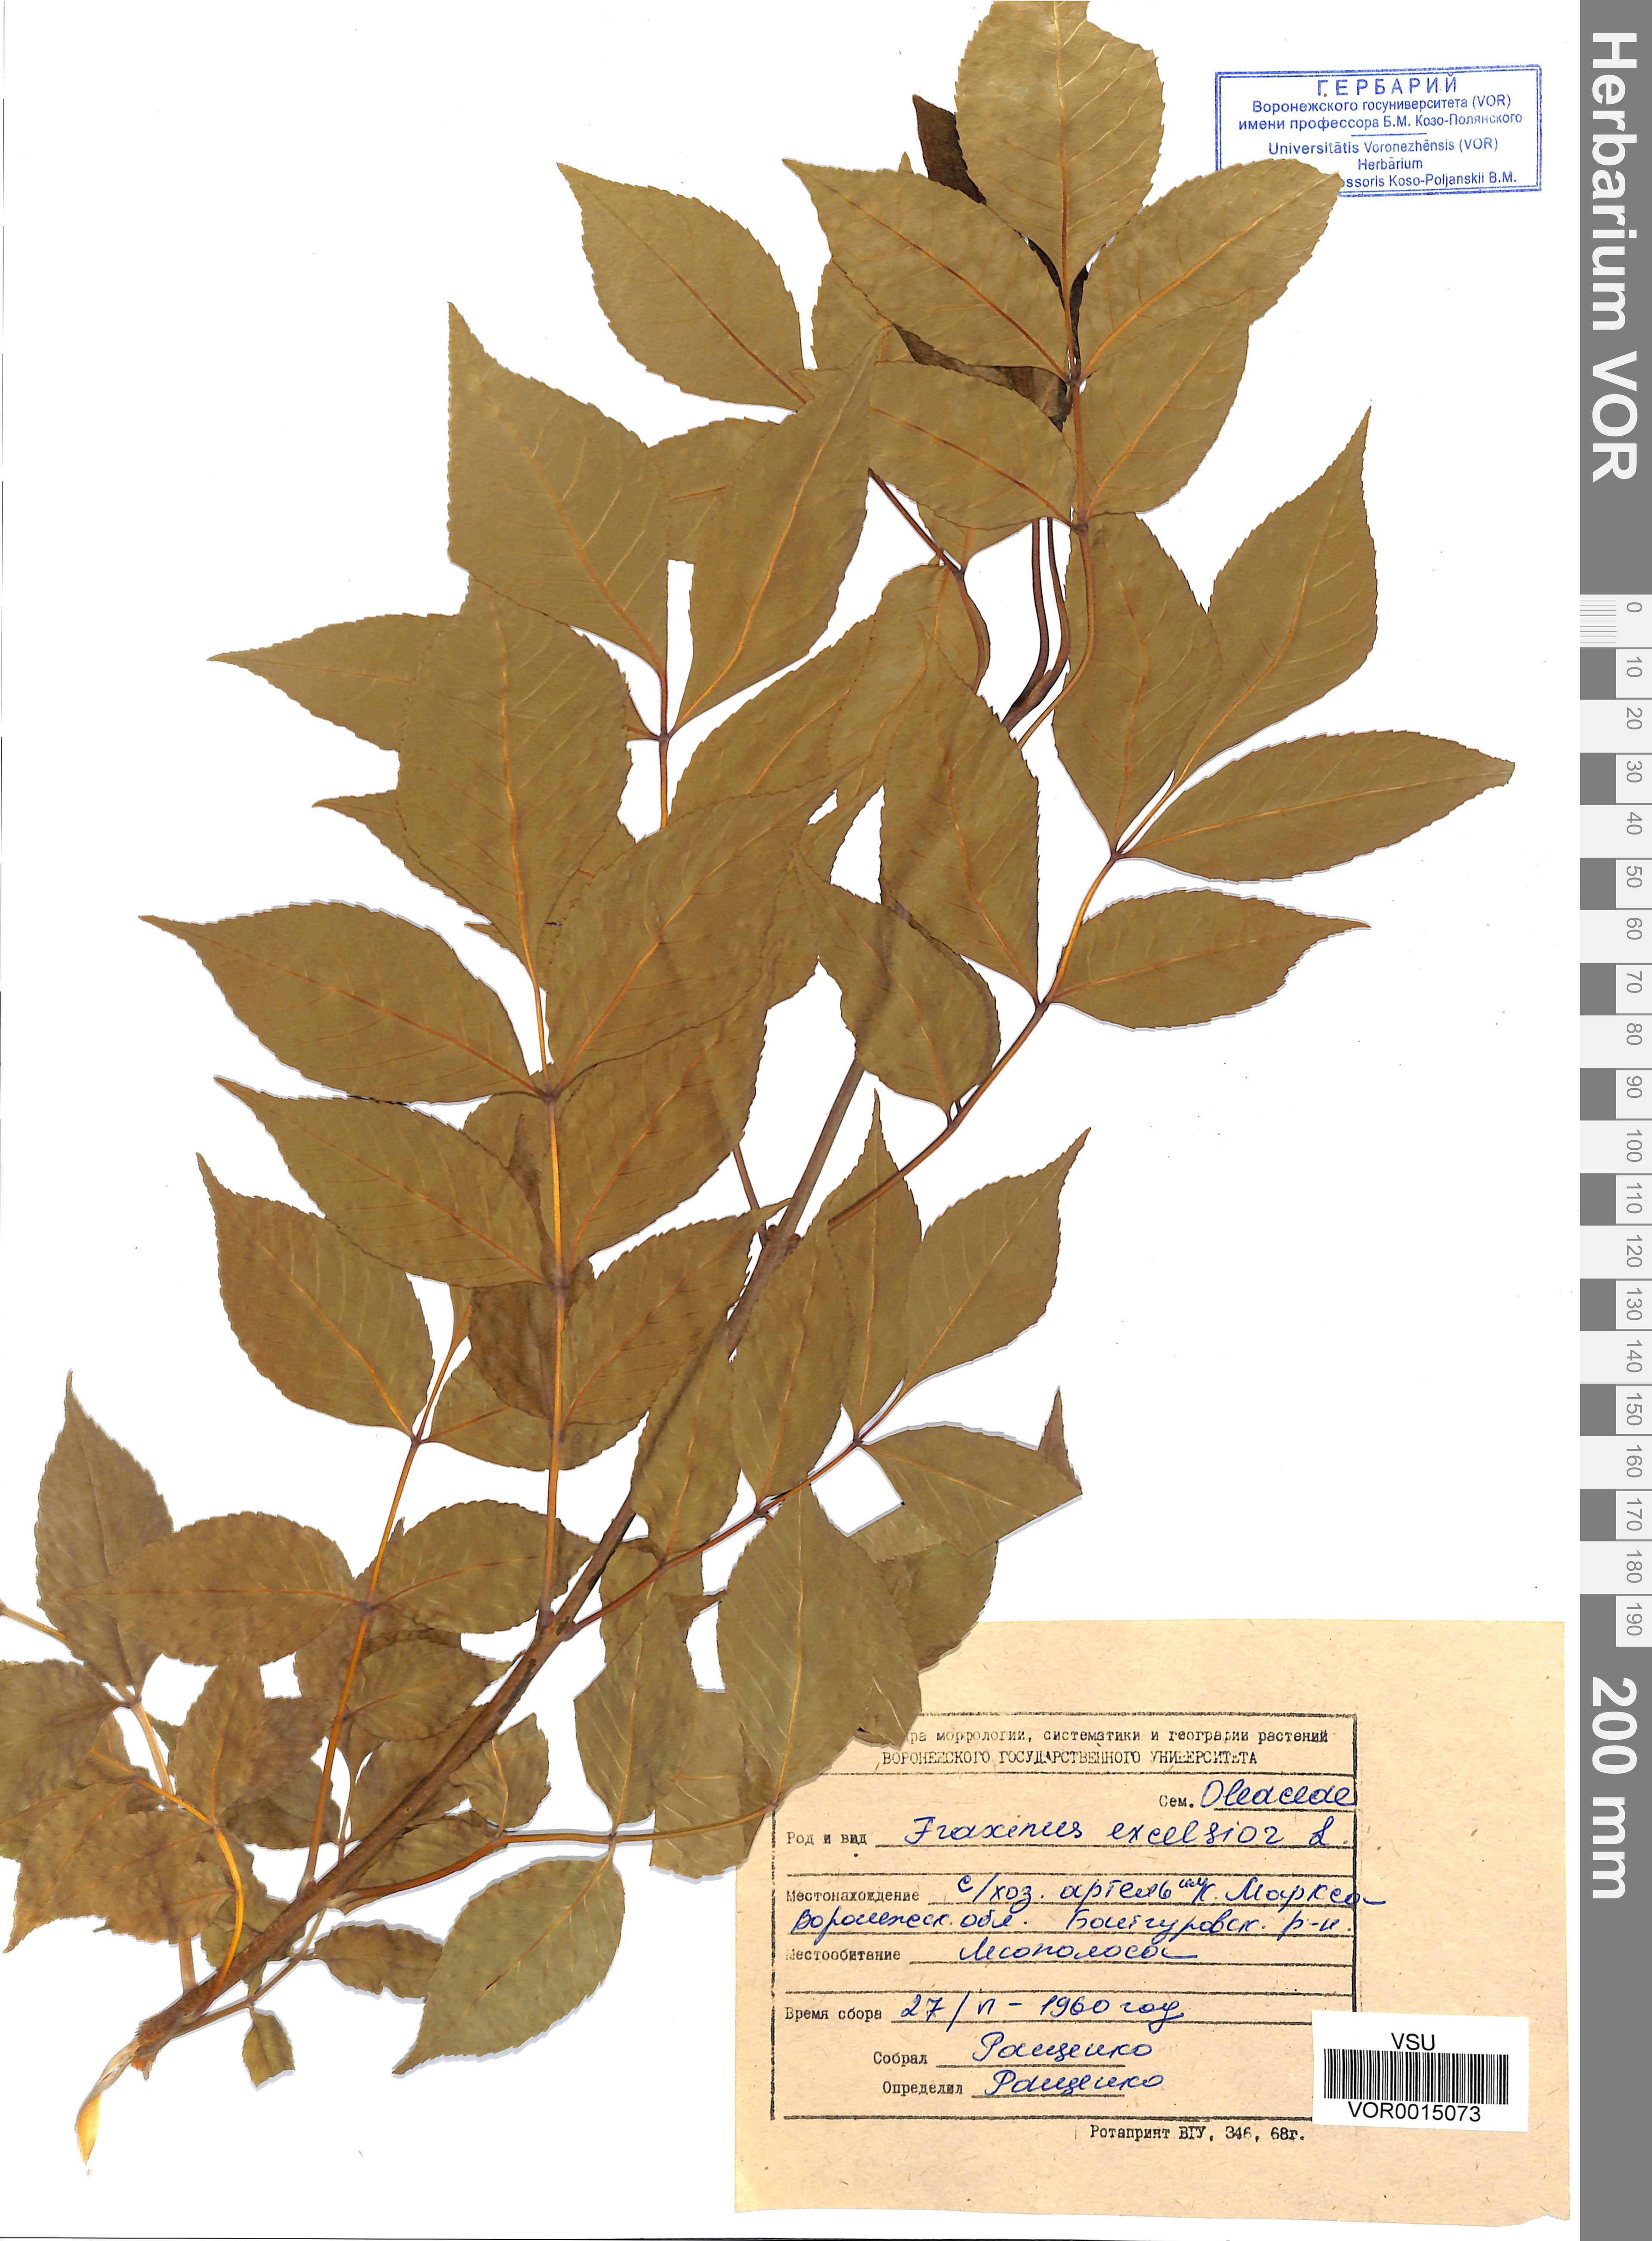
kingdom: Plantae
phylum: Tracheophyta
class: Magnoliopsida
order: Lamiales
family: Oleaceae
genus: Fraxinus
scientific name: Fraxinus excelsior
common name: European ash
